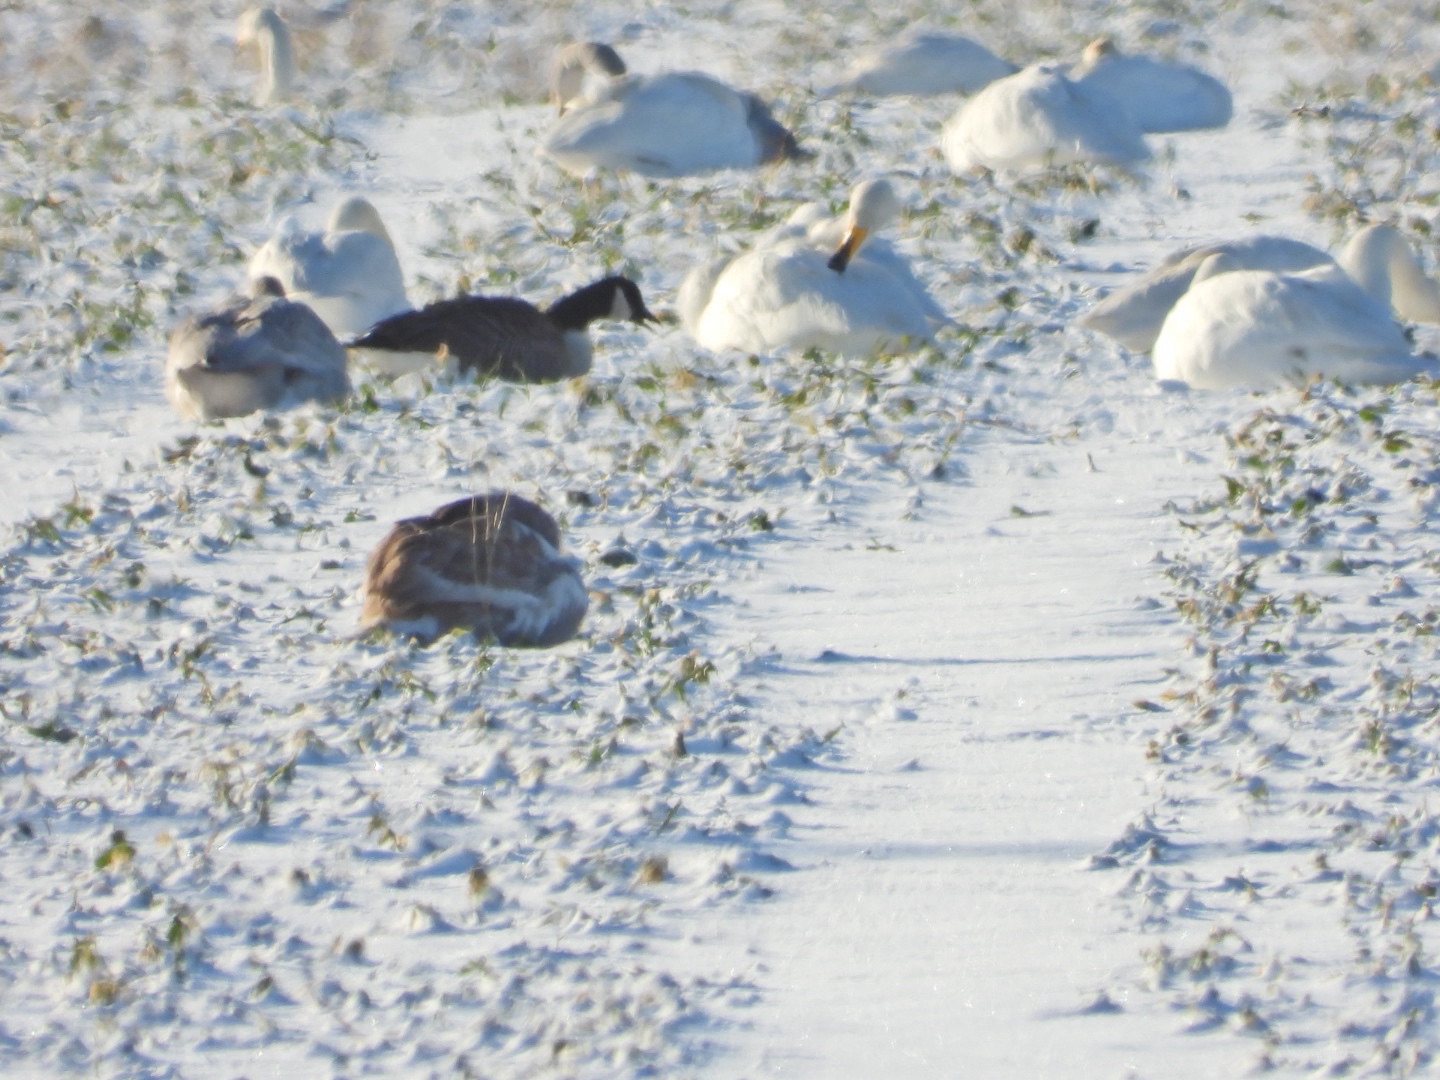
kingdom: Animalia
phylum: Chordata
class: Aves
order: Anseriformes
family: Anatidae
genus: Branta
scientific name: Branta canadensis
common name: Canadagås
